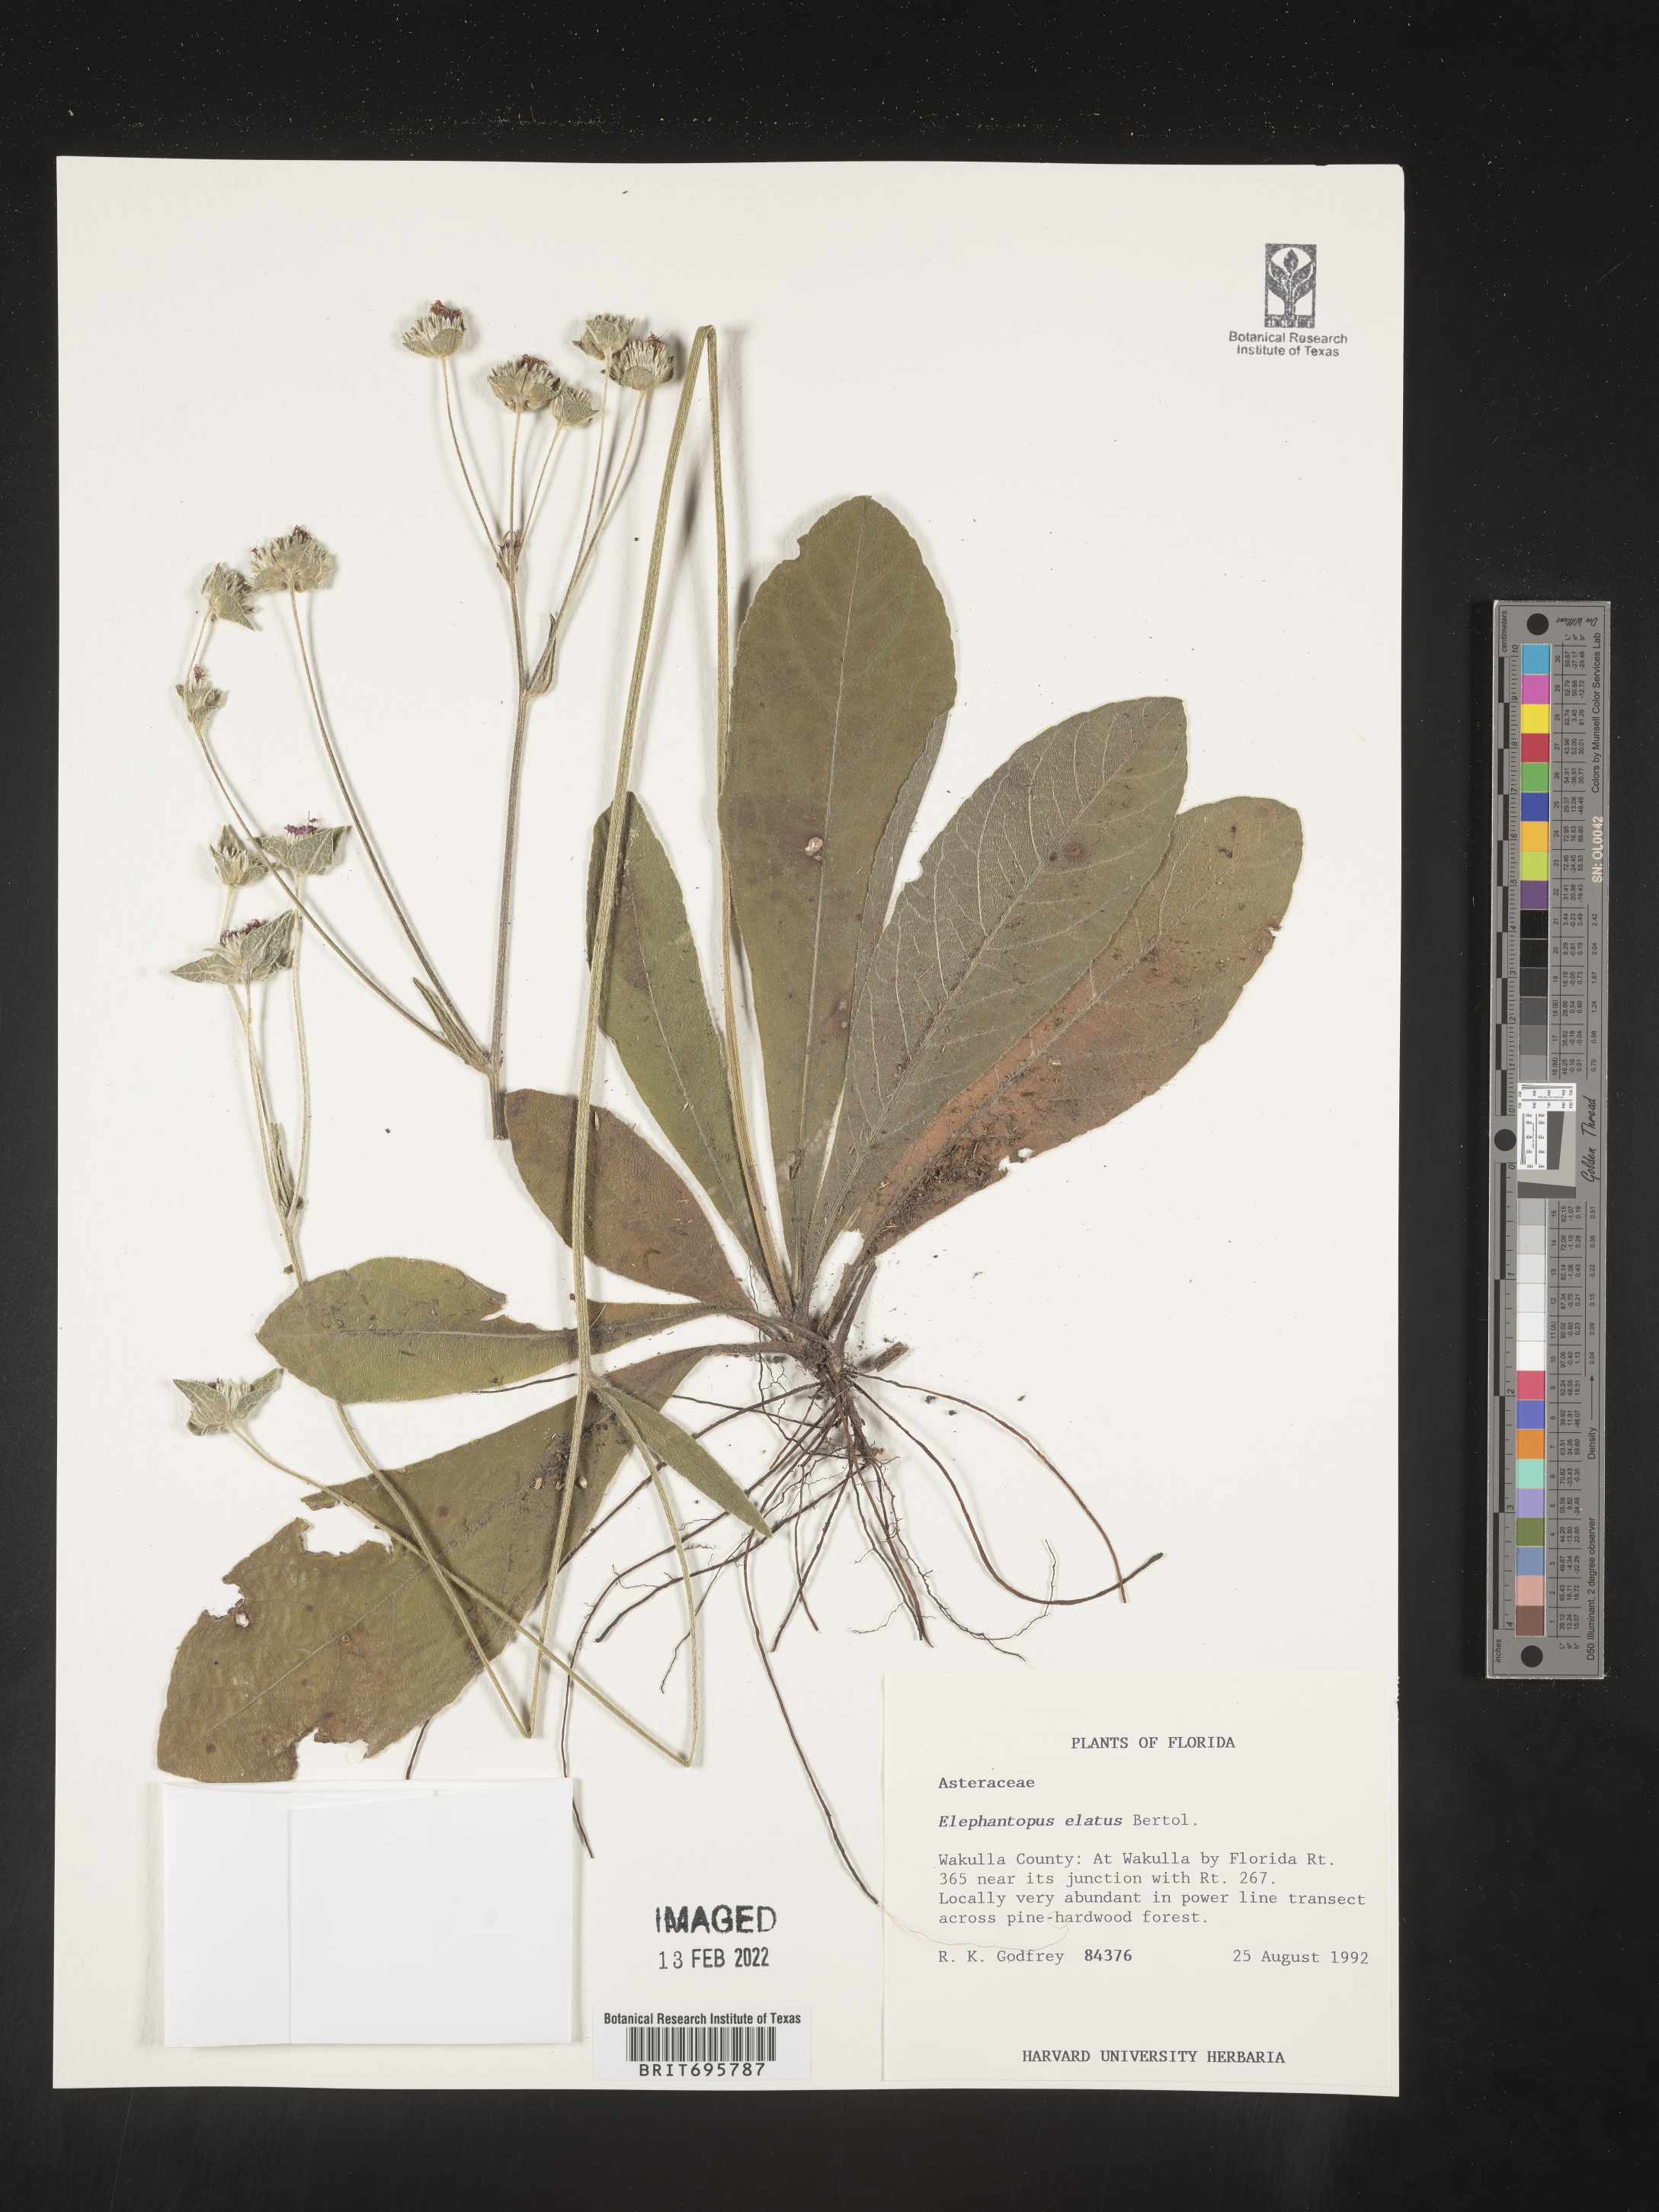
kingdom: Plantae
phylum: Tracheophyta
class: Magnoliopsida
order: Asterales
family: Asteraceae
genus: Elephantopus
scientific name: Elephantopus elatus
